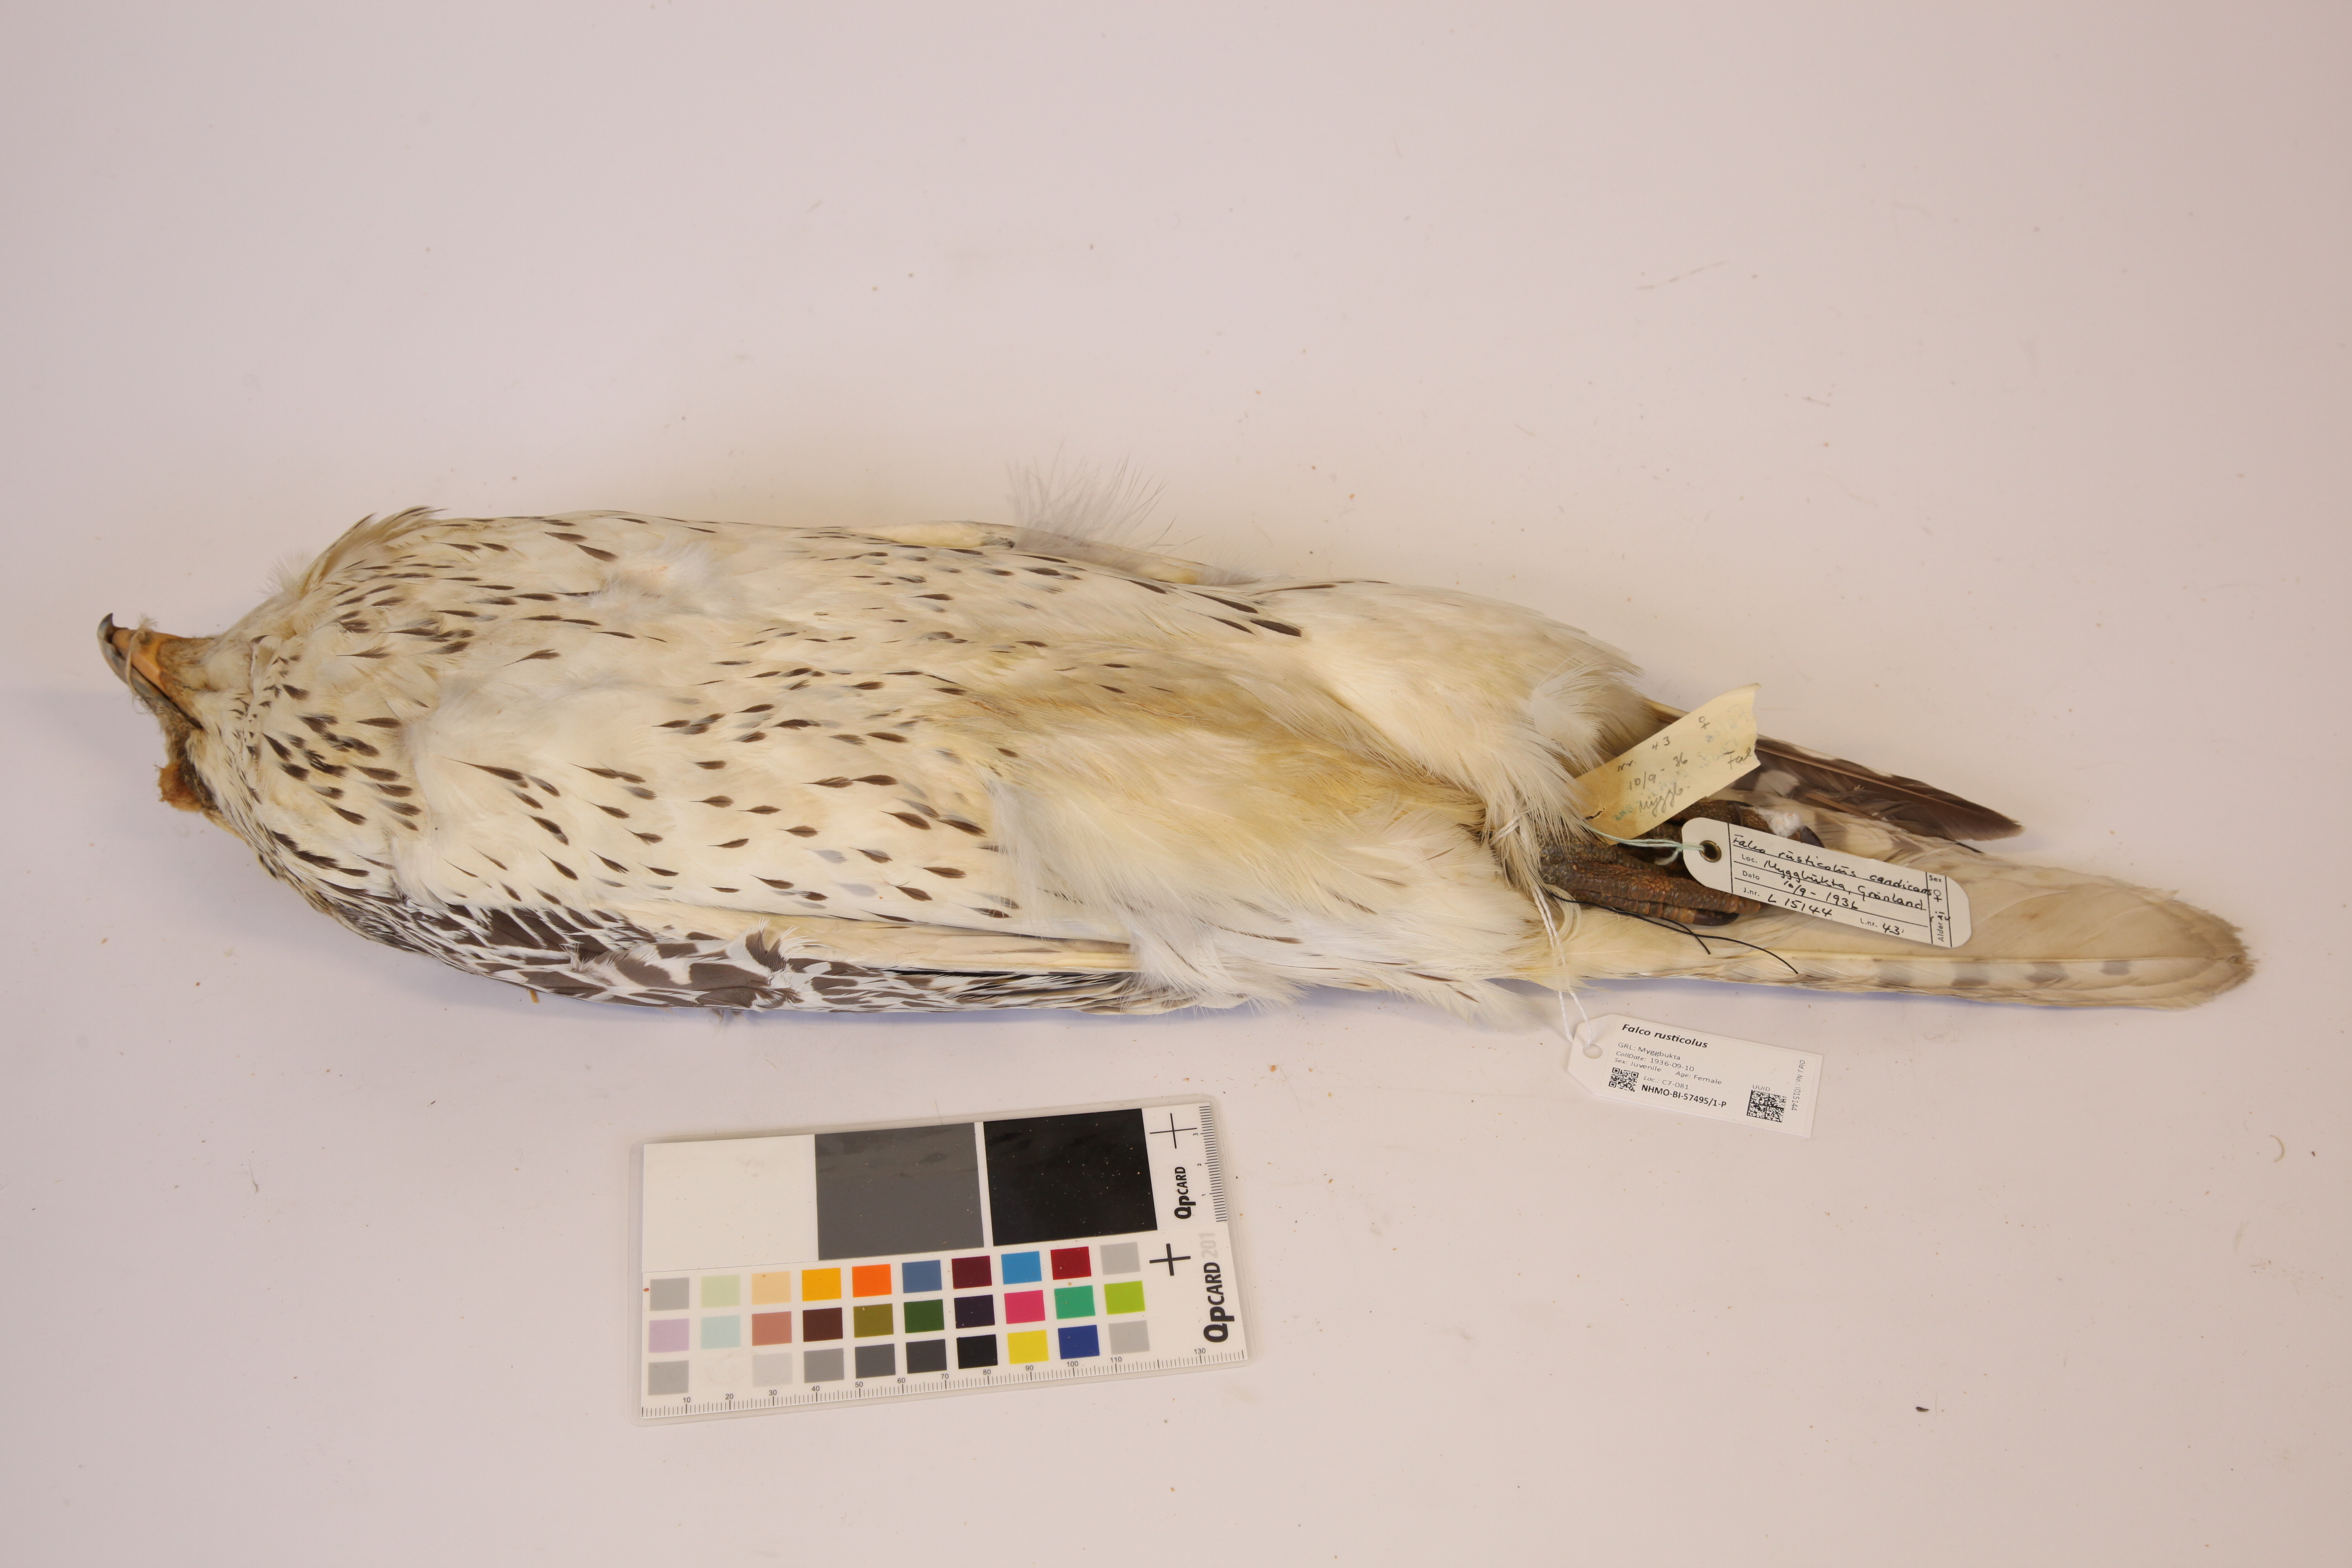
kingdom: Animalia
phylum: Chordata
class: Aves
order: Falconiformes
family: Falconidae
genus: Falco
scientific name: Falco rusticolus
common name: Gyrfalcon
